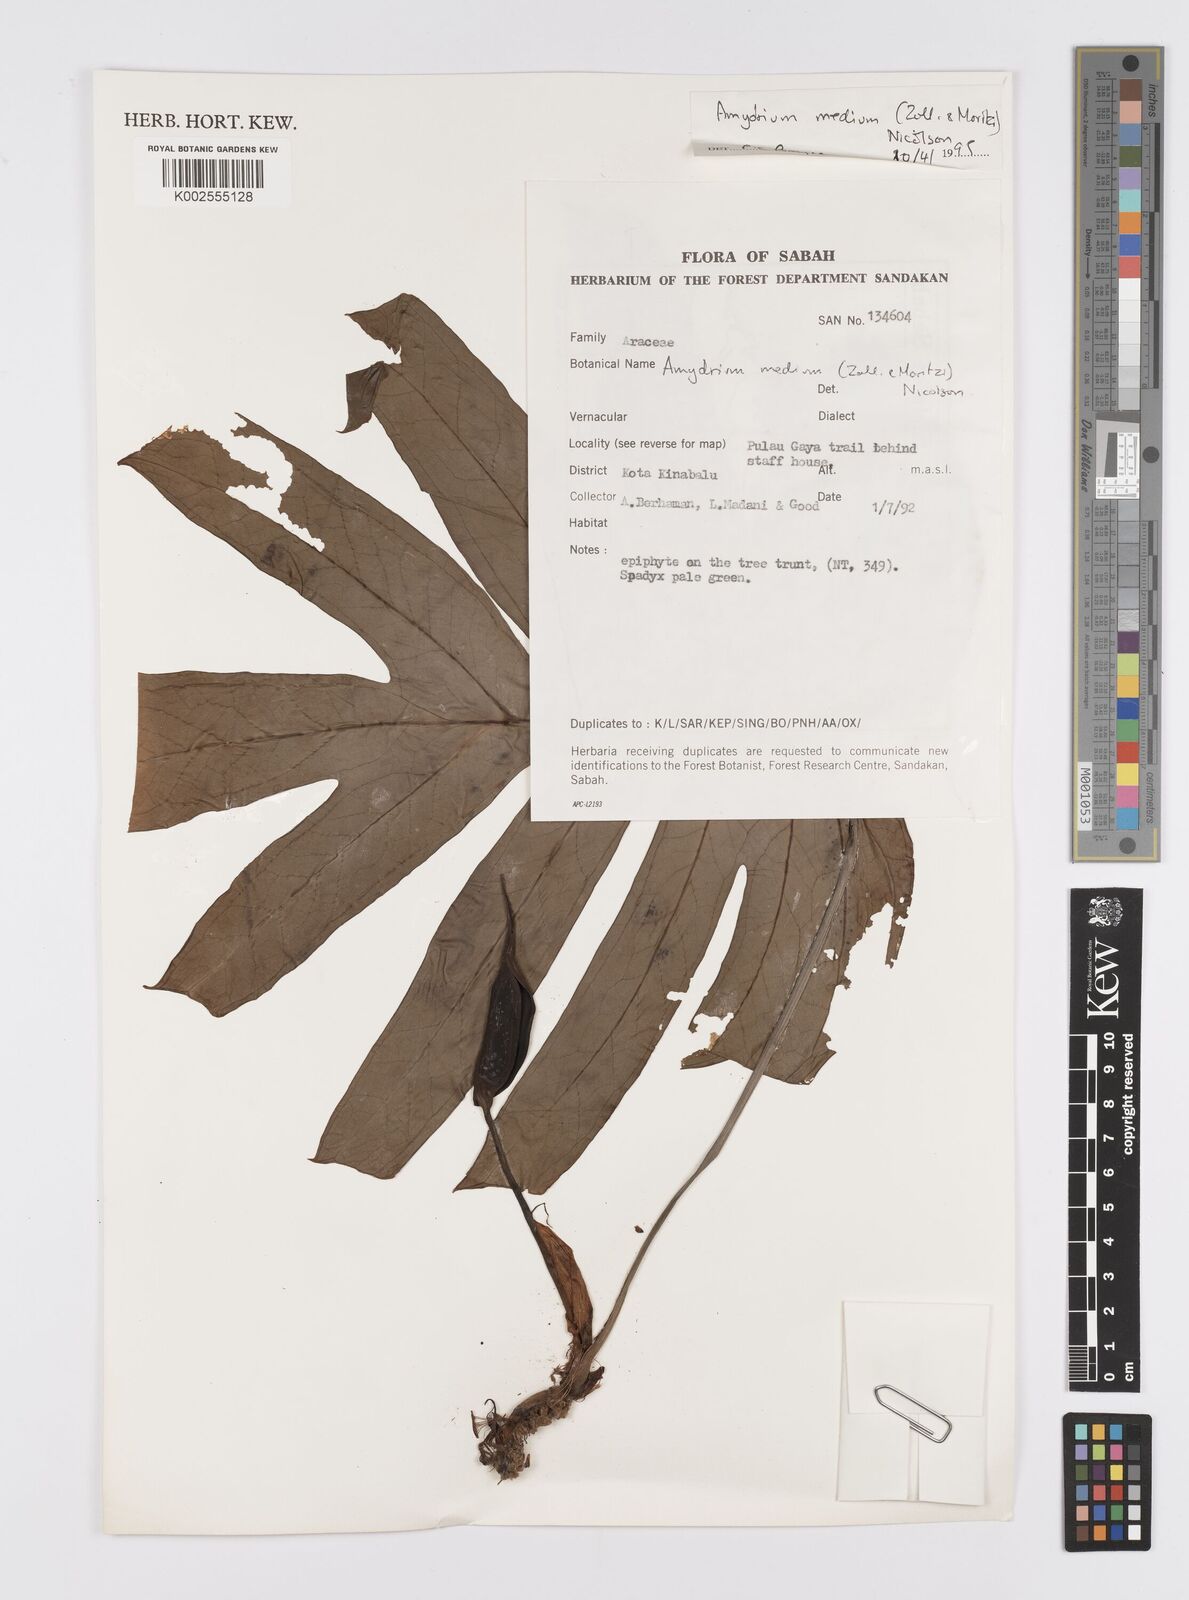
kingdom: Plantae
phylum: Tracheophyta
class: Liliopsida
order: Alismatales
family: Araceae
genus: Amydrium
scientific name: Amydrium medium
